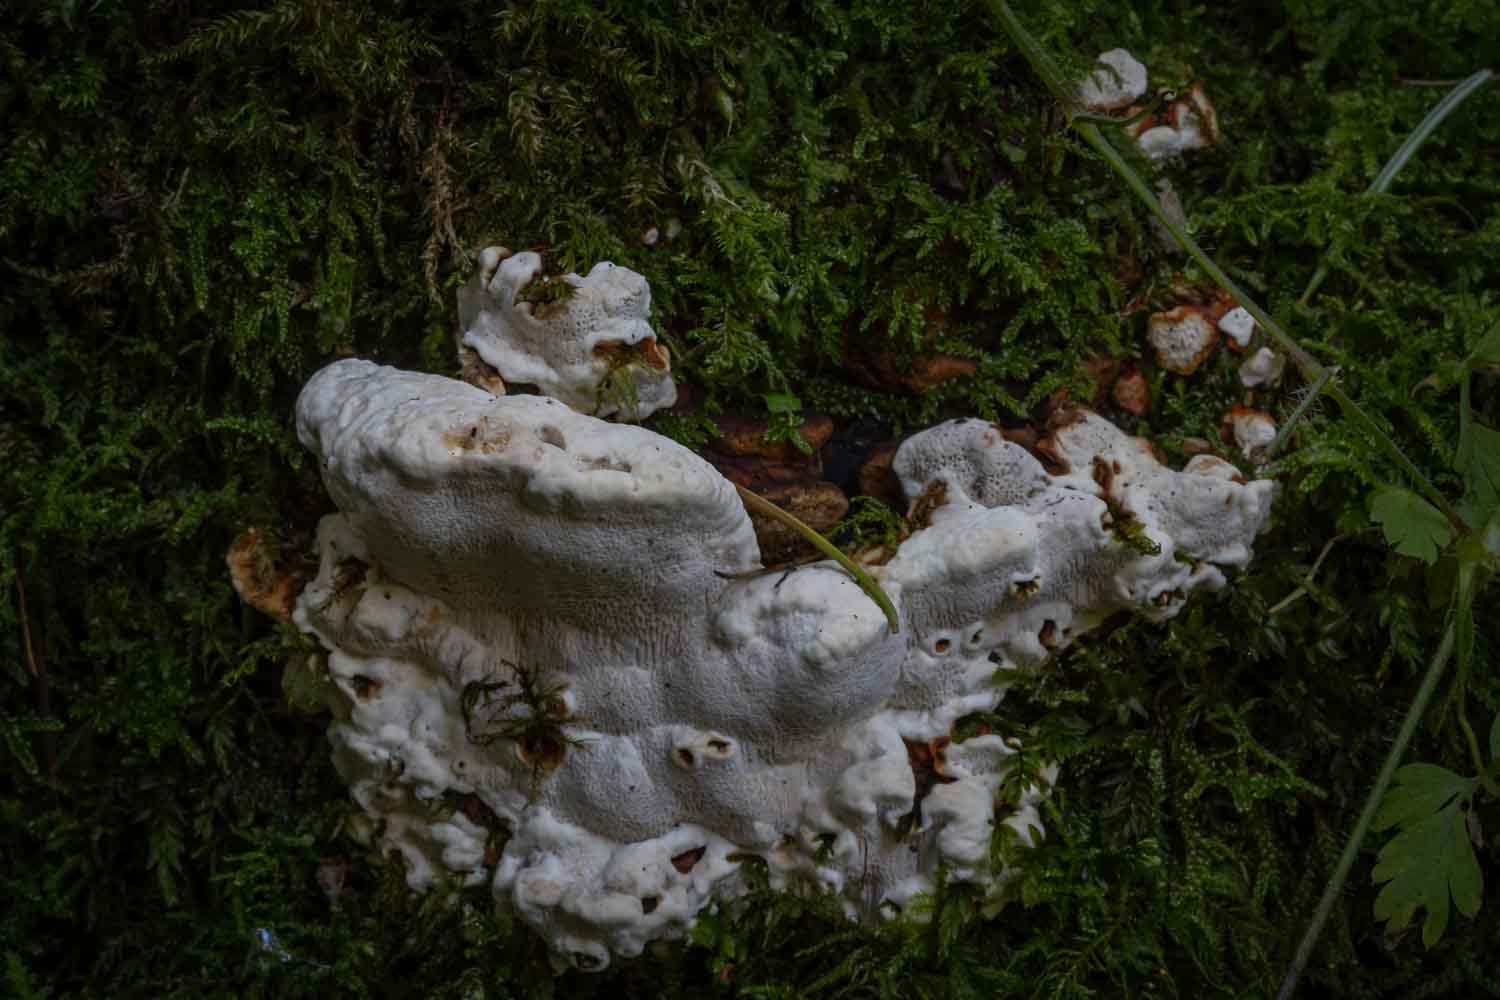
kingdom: Fungi
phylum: Basidiomycota
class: Agaricomycetes
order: Polyporales
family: Polyporaceae
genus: Trametes
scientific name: Trametes gibbosa
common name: puklet læderporesvamp
